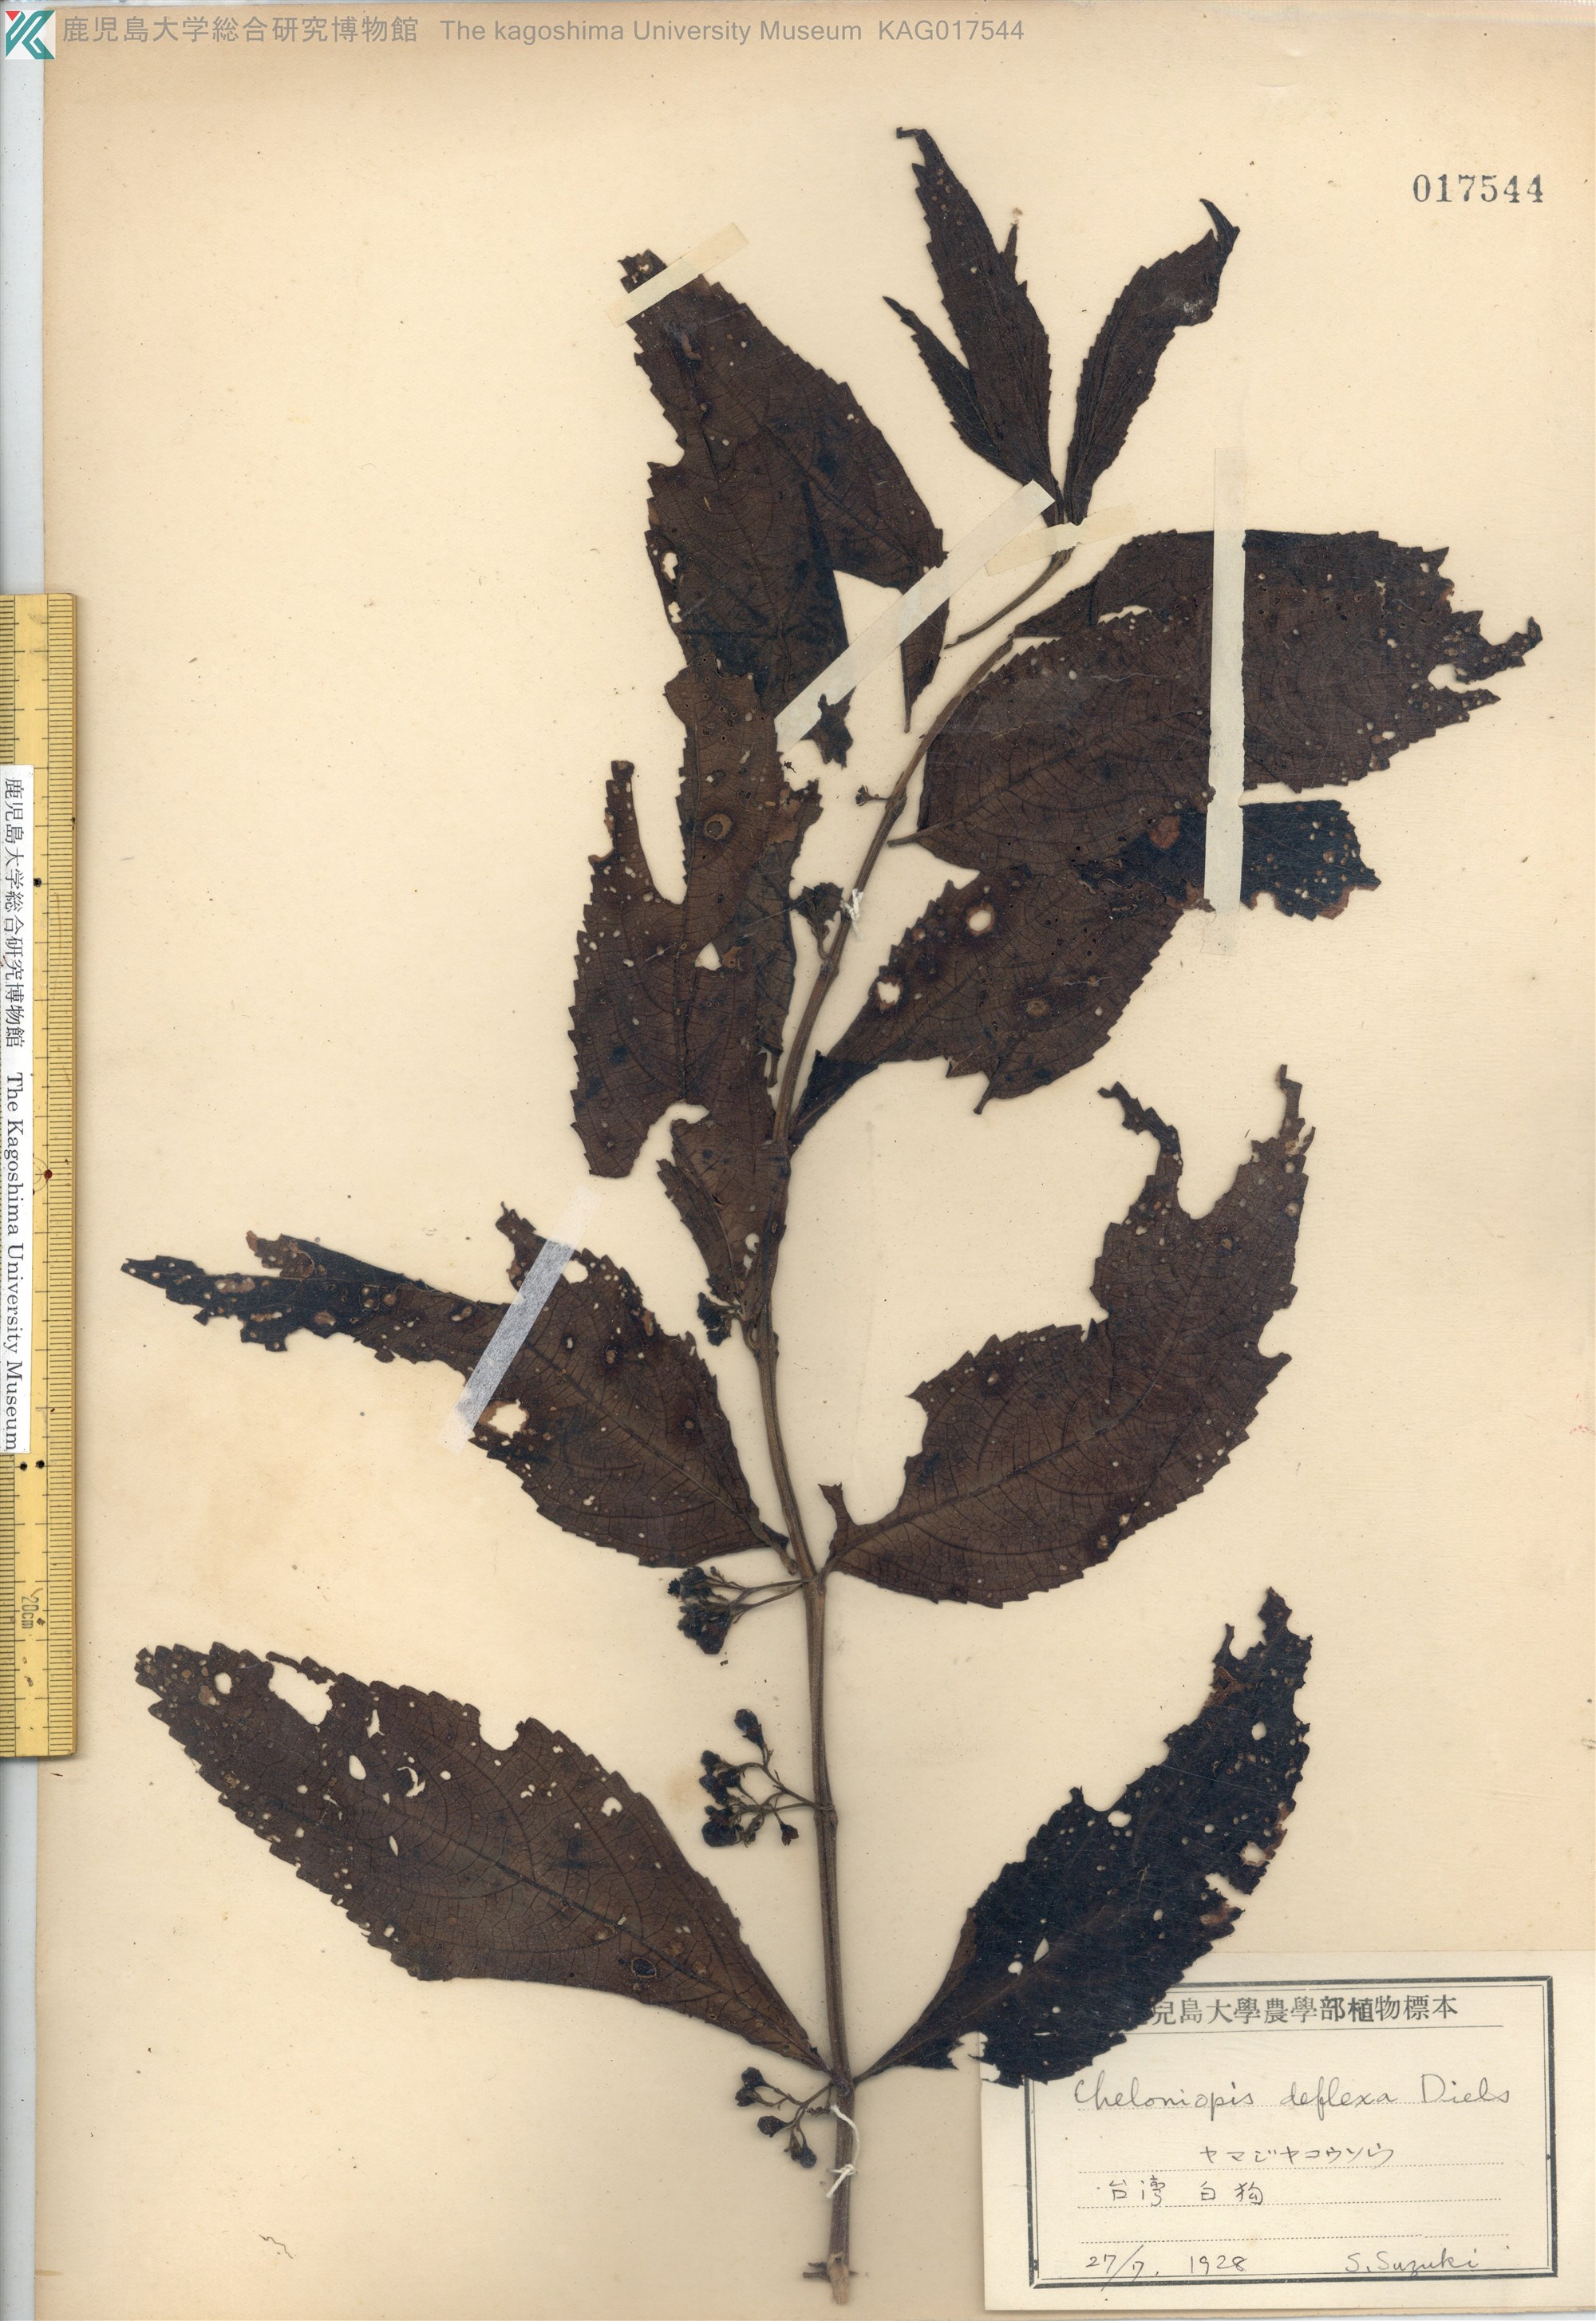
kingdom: Plantae
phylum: Tracheophyta
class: Magnoliopsida
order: Lamiales
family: Lamiaceae
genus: Chelonopsis
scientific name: Chelonopsis deflexa
